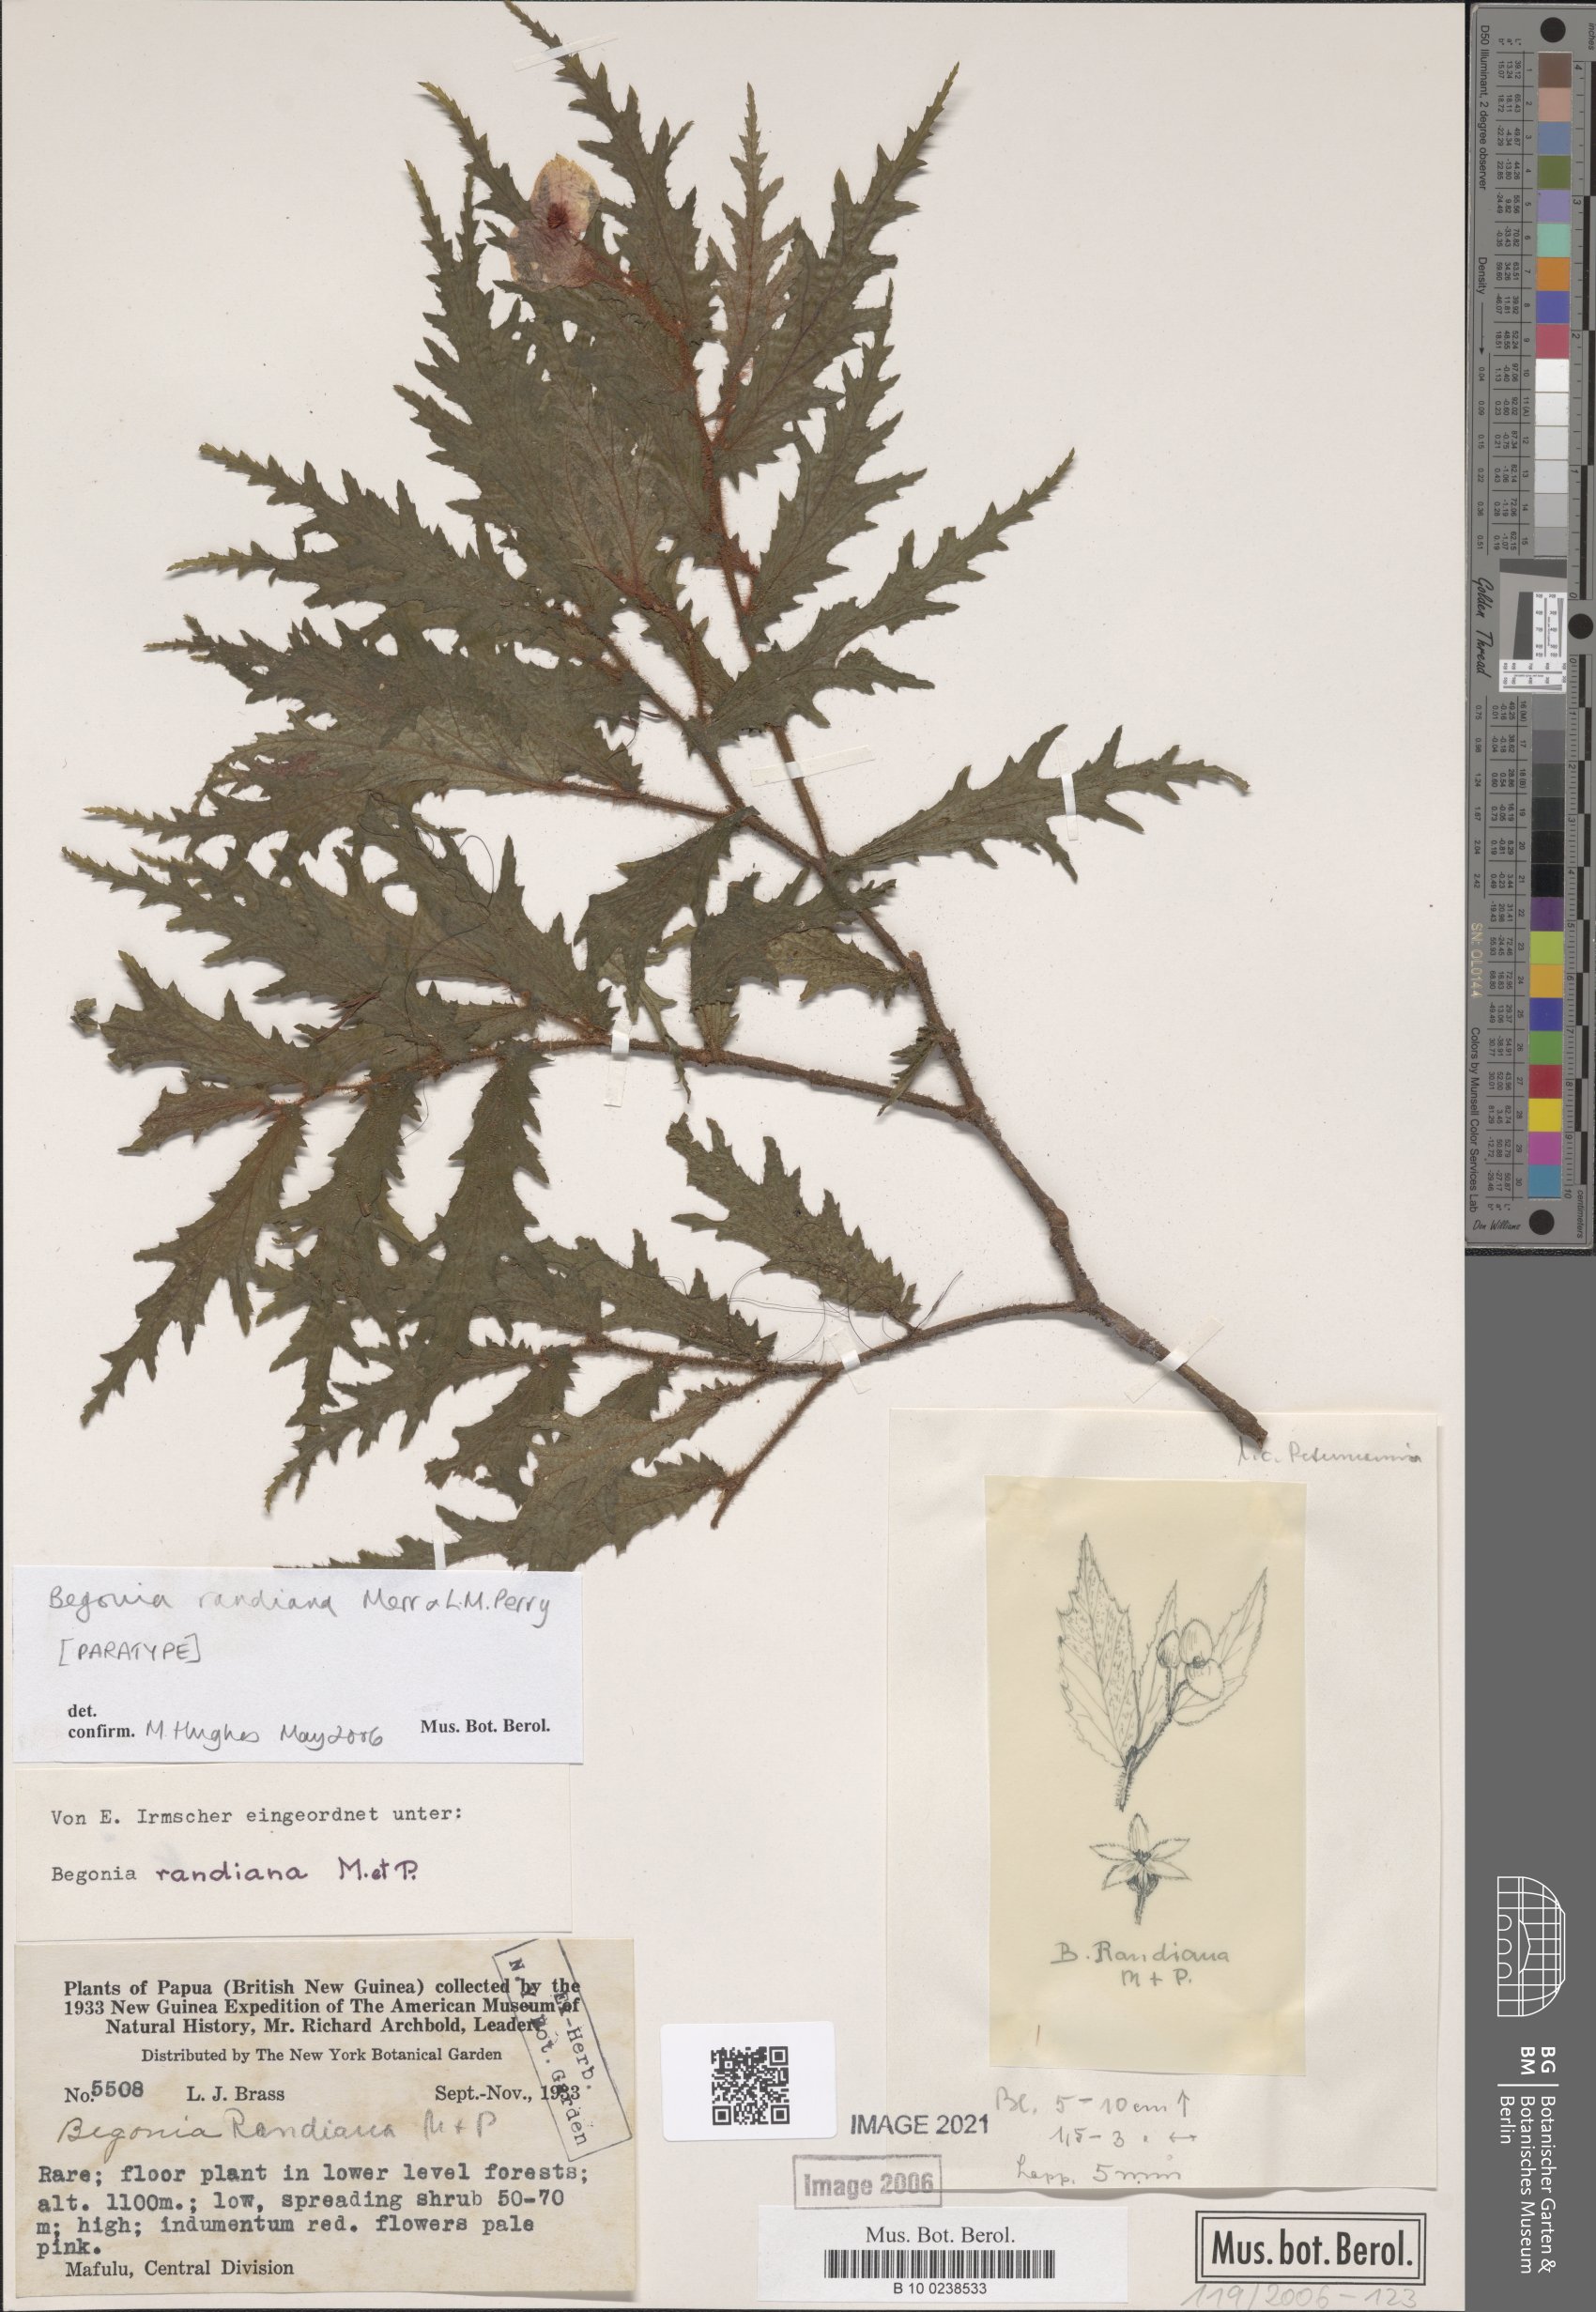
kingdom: Plantae
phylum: Tracheophyta
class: Magnoliopsida
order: Cucurbitales
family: Begoniaceae
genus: Begonia
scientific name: Begonia randiana
